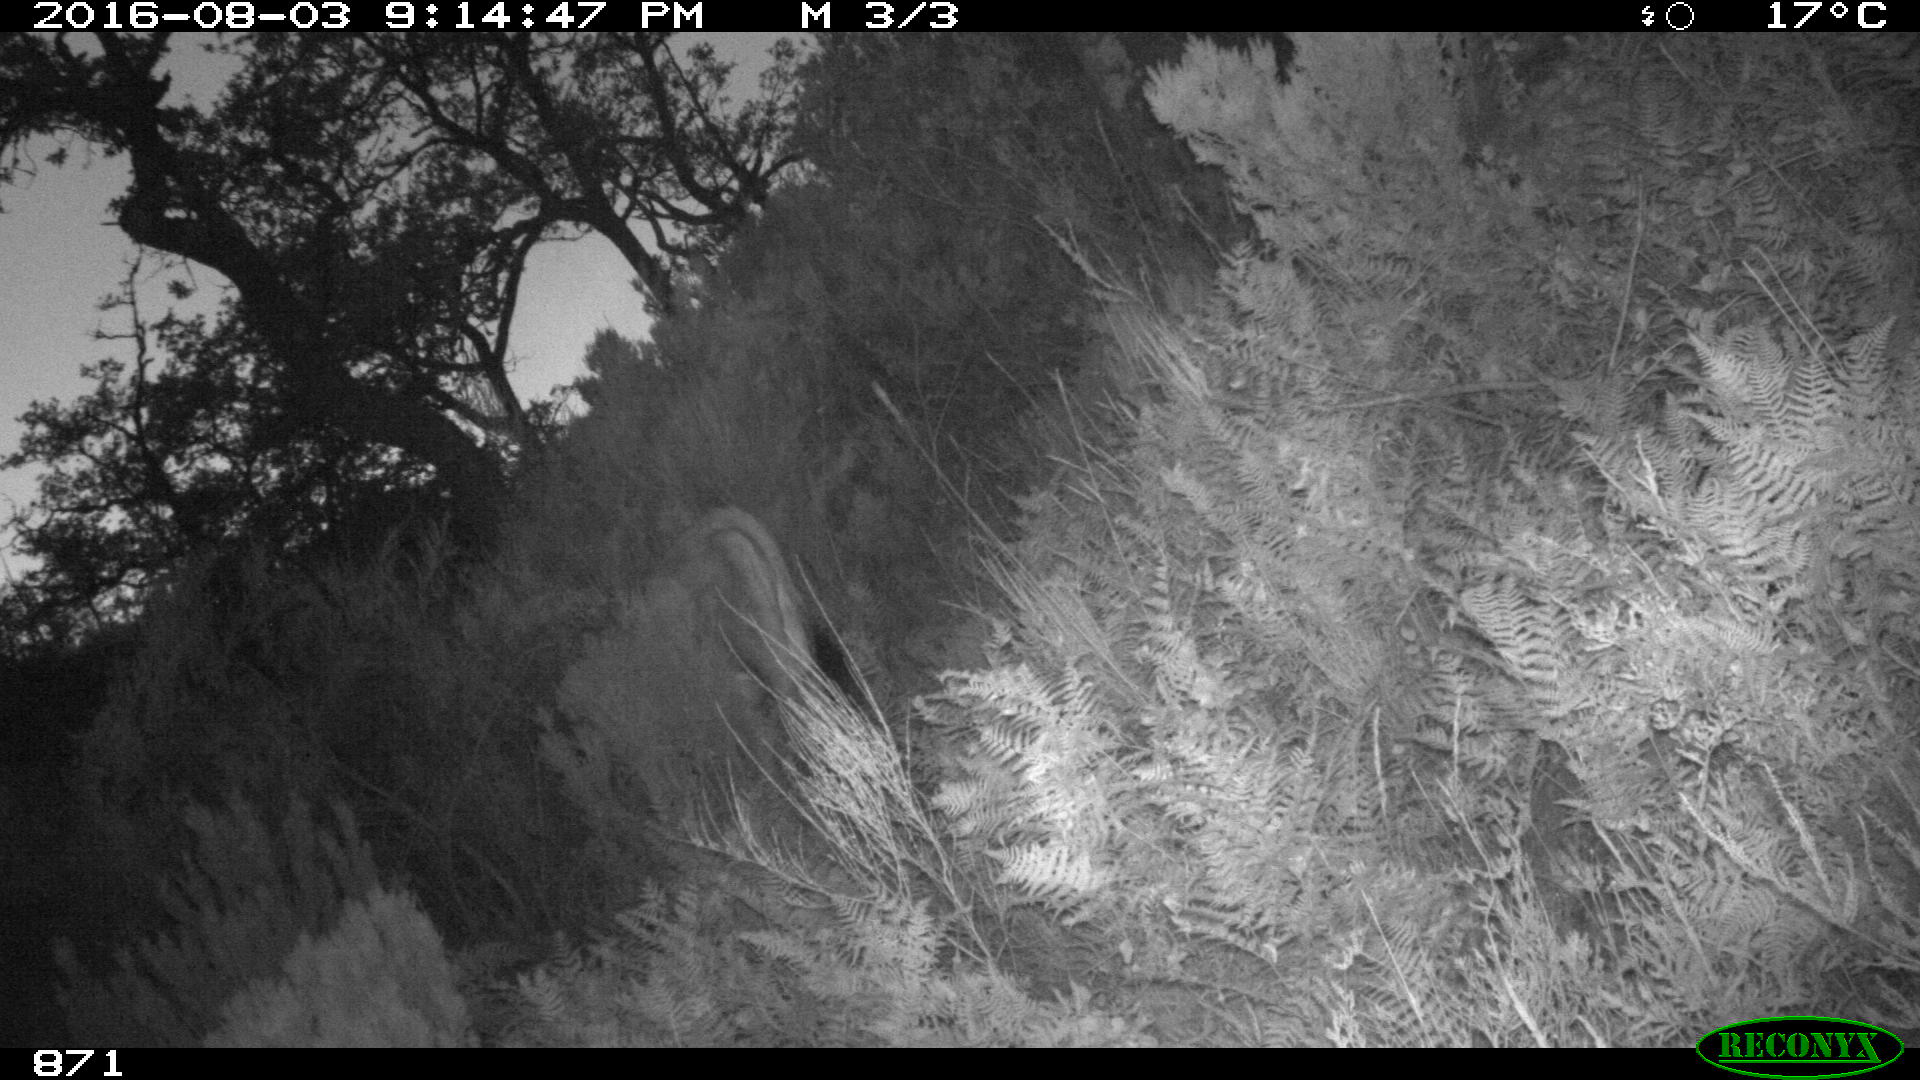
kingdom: Animalia
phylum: Chordata
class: Mammalia
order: Artiodactyla
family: Bovidae
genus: Bos
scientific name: Bos taurus
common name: Domesticated cattle
